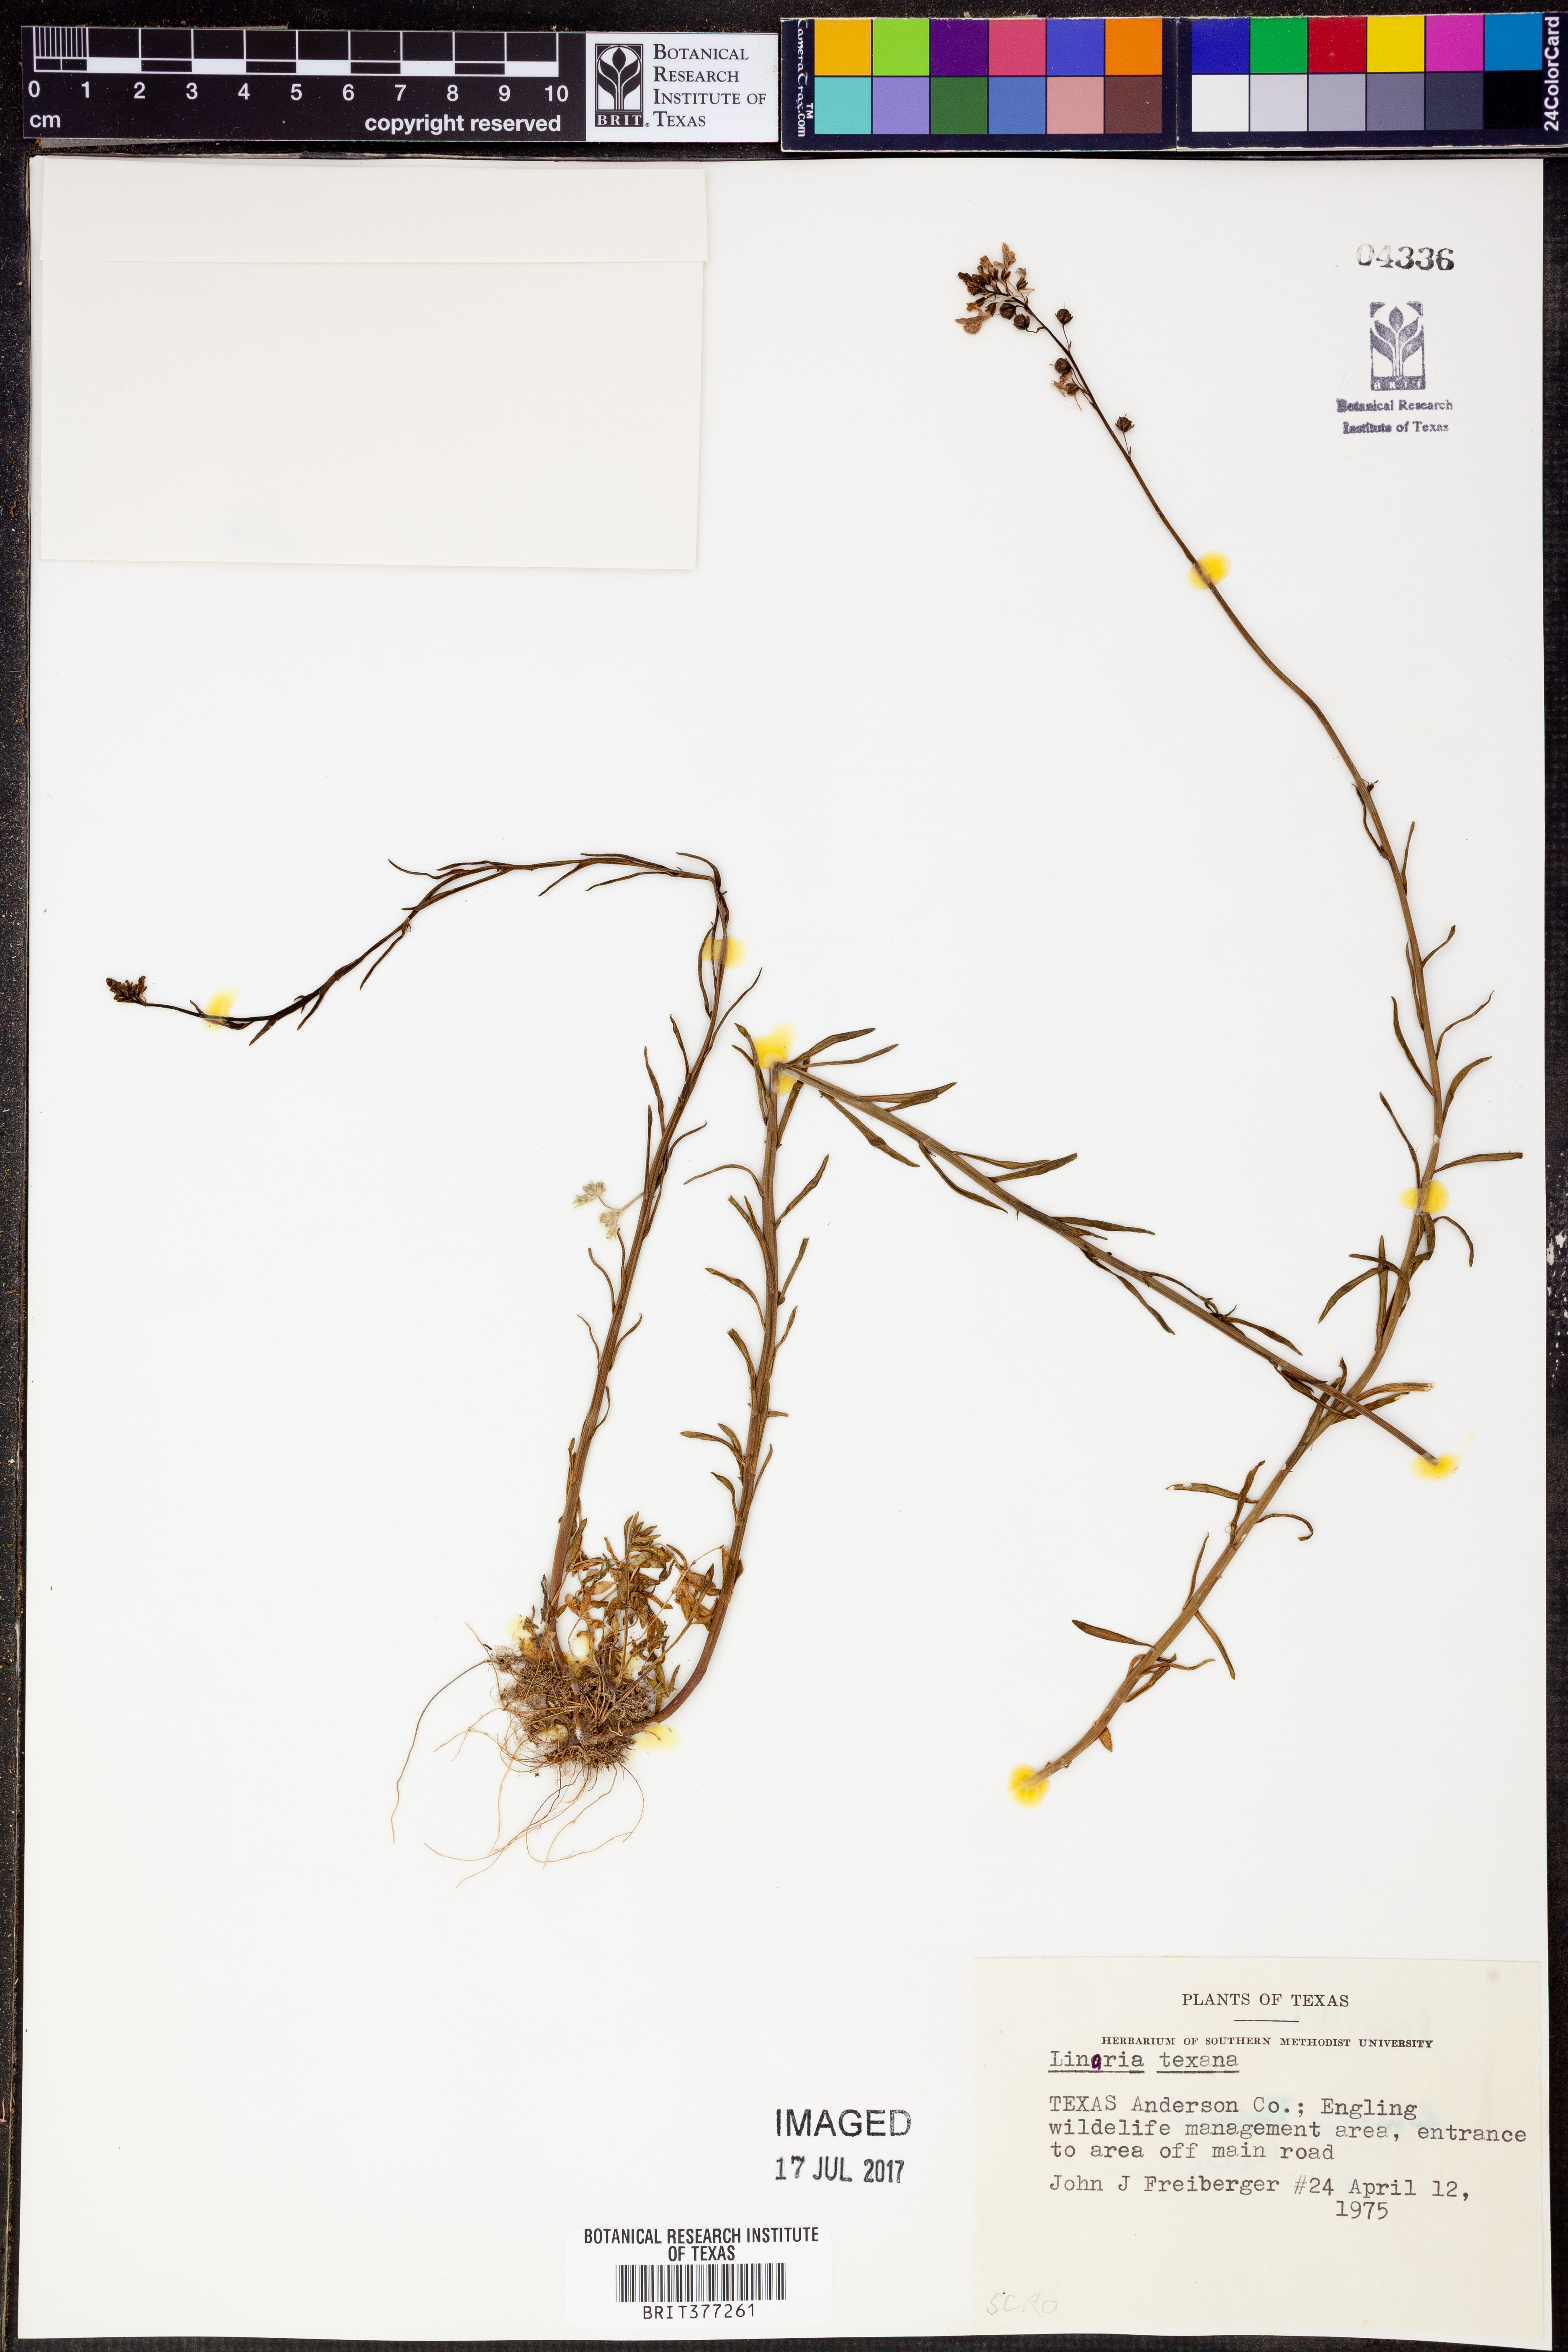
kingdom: Plantae
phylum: Tracheophyta
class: Magnoliopsida
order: Lamiales
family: Plantaginaceae
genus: Nuttallanthus
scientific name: Nuttallanthus texanus
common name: Texas toadflax
